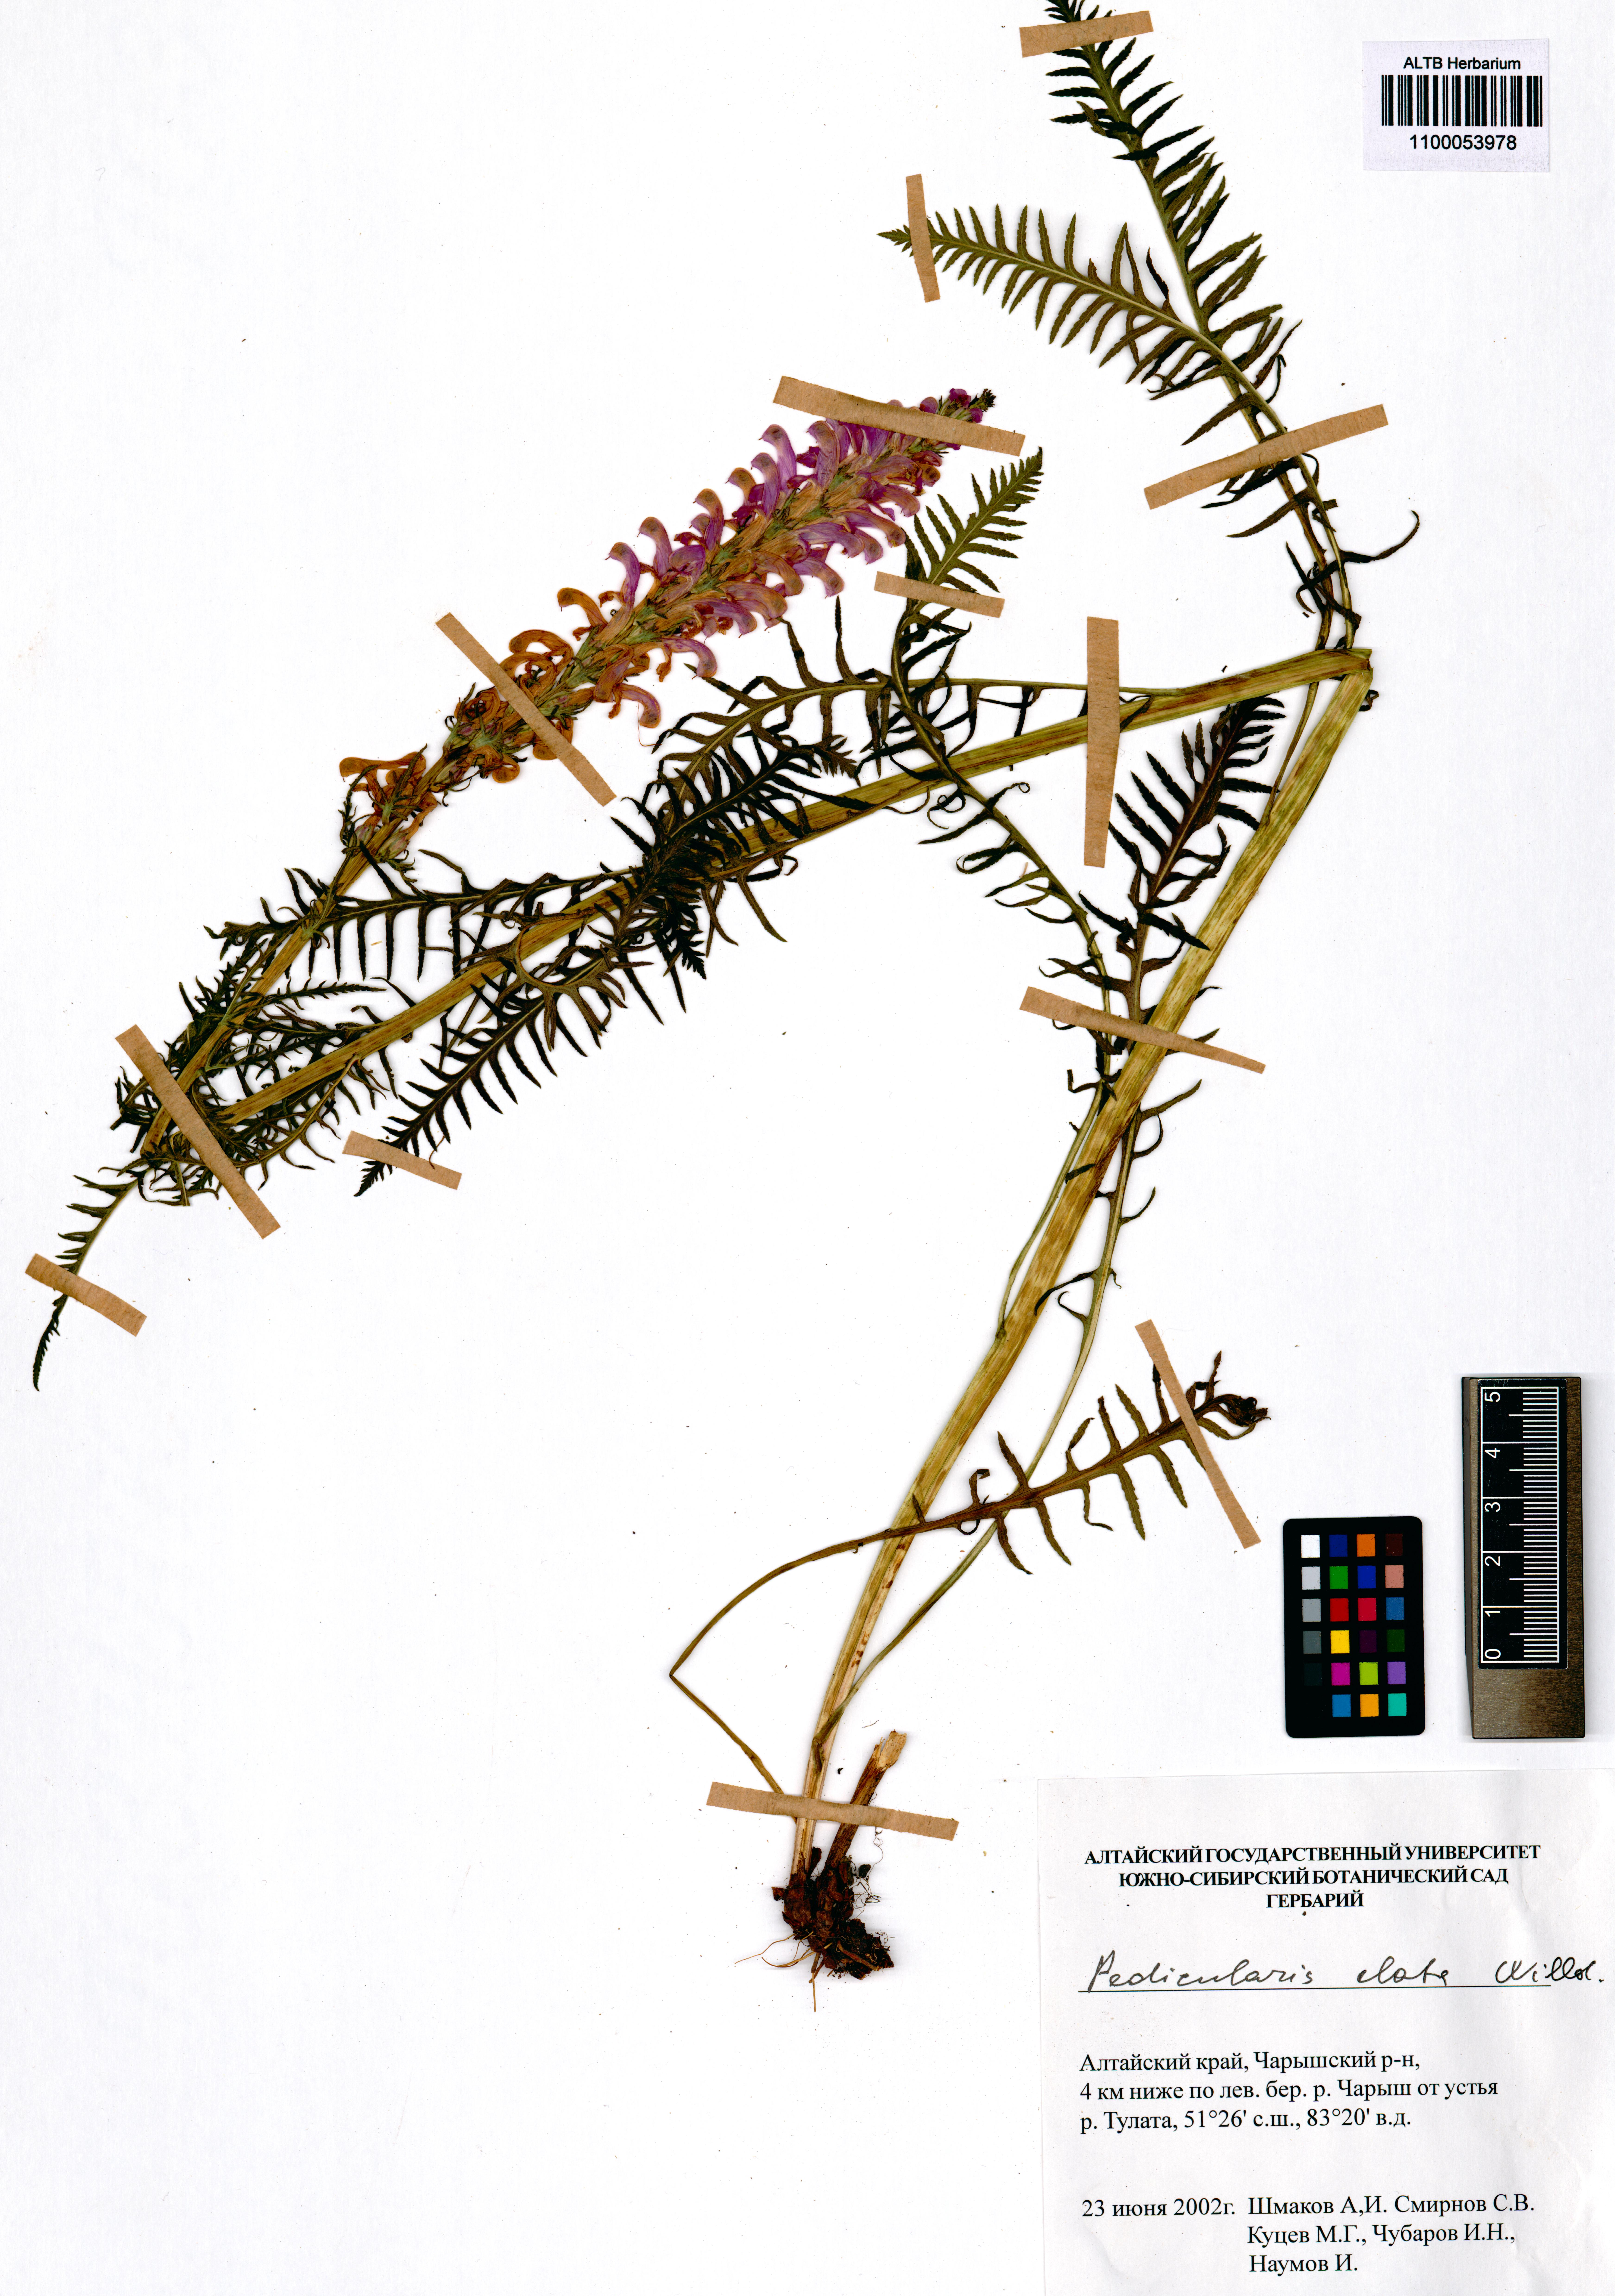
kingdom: Plantae
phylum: Tracheophyta
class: Magnoliopsida
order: Lamiales
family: Orobanchaceae
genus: Pedicularis
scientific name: Pedicularis elata
